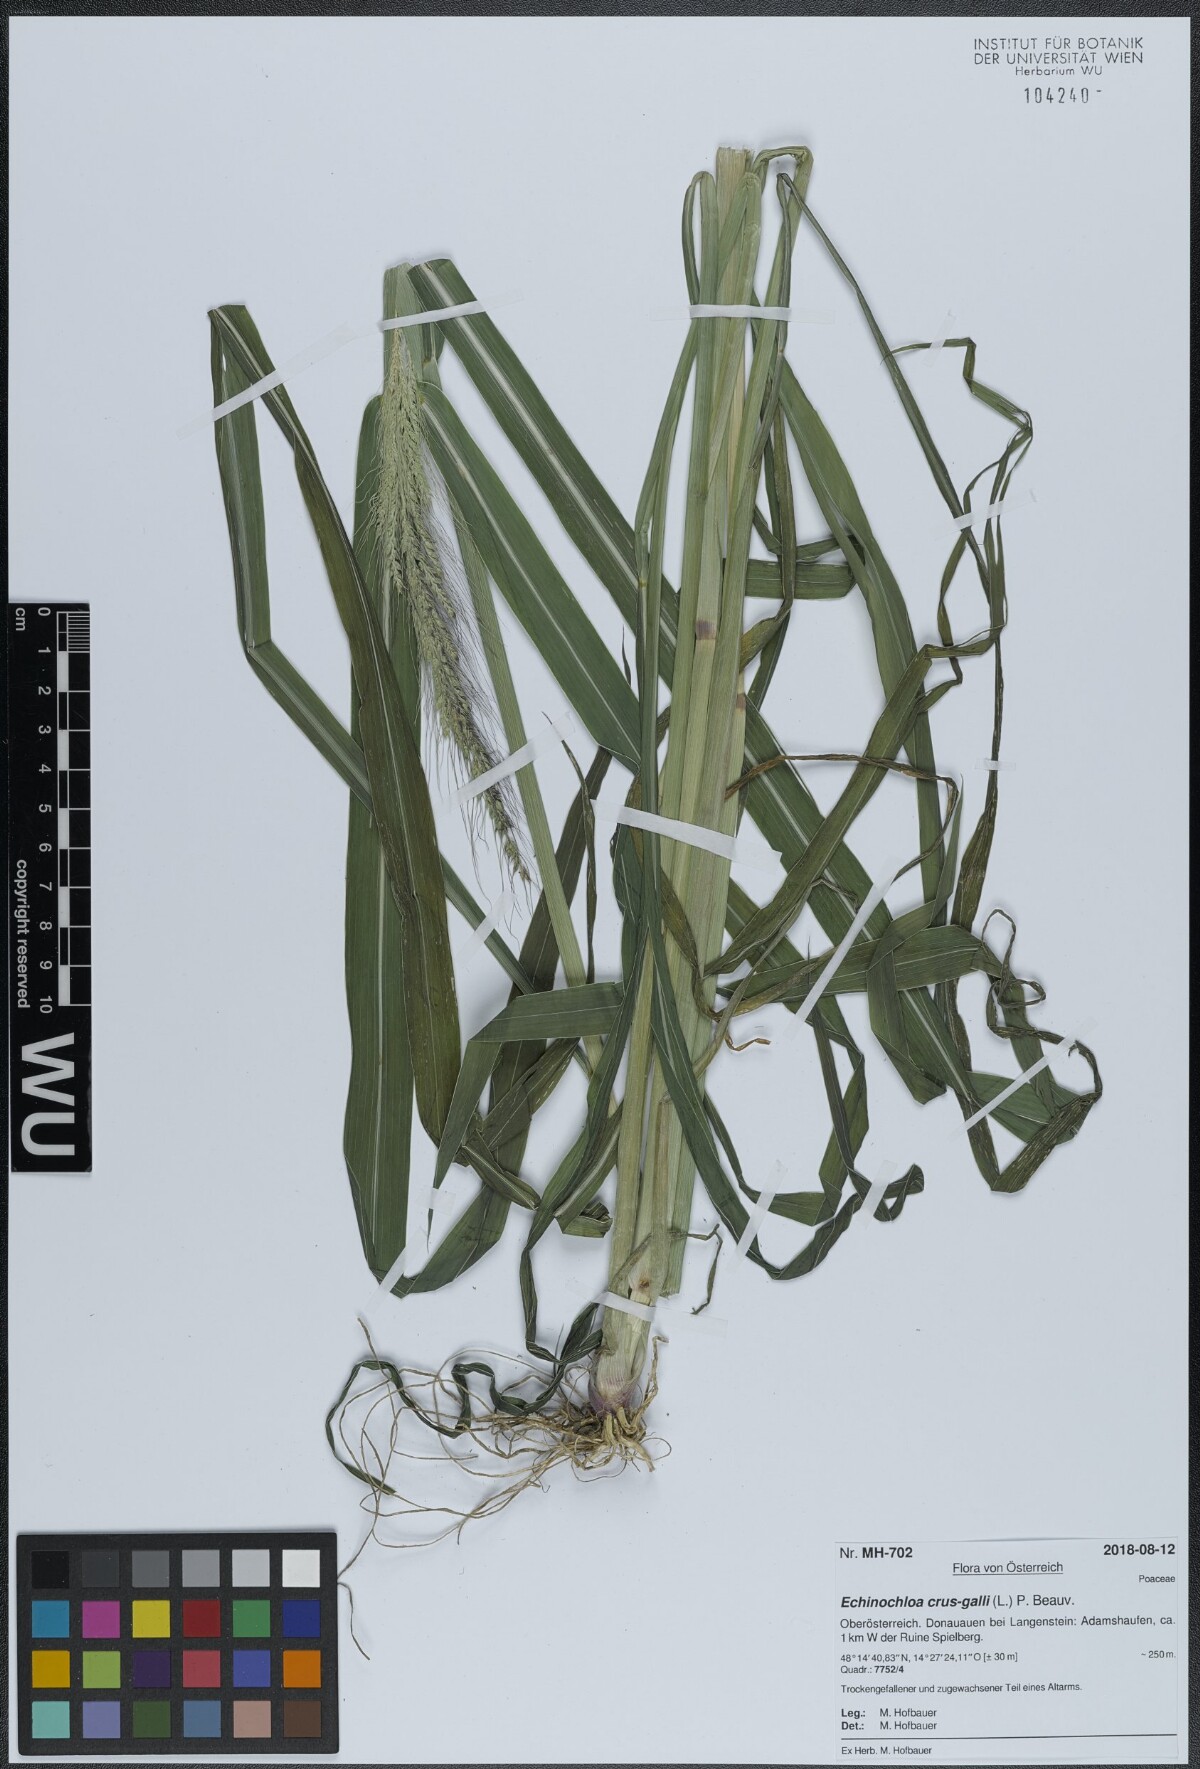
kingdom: Plantae
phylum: Tracheophyta
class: Liliopsida
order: Poales
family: Poaceae
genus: Echinochloa
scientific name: Echinochloa crus-galli
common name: Cockspur
